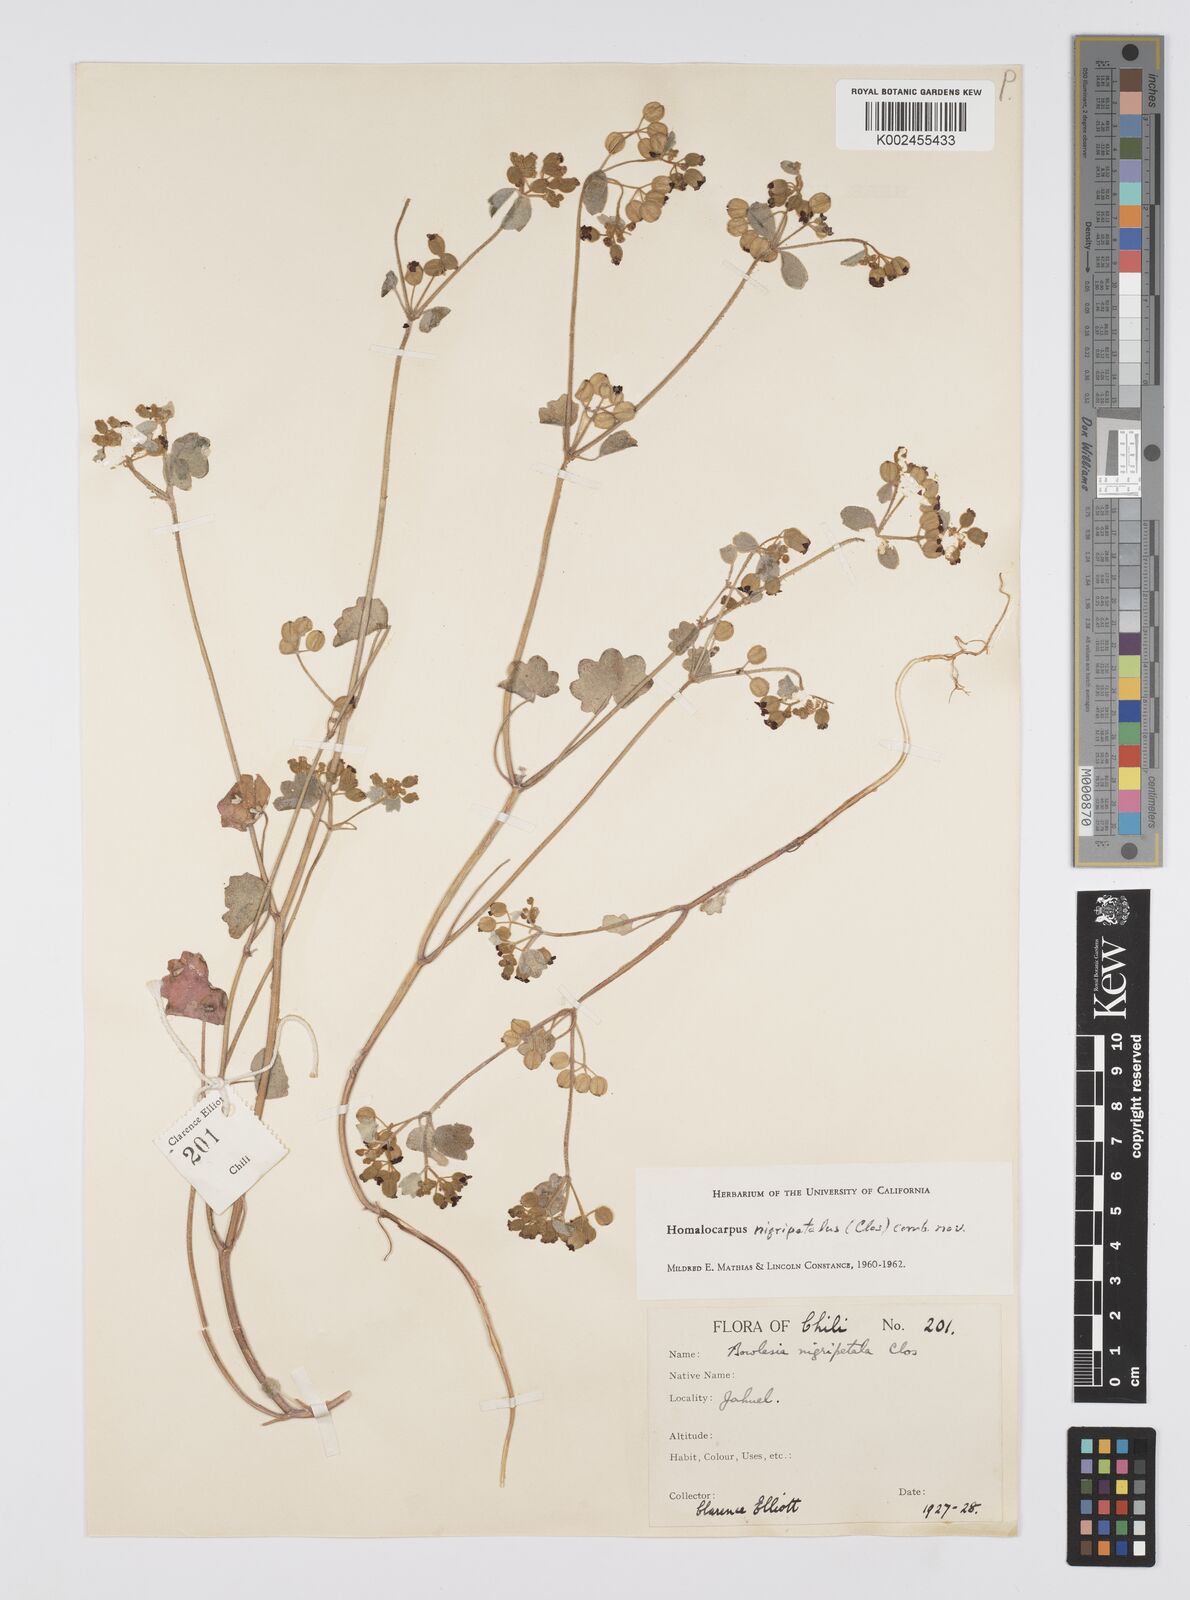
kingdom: Plantae
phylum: Tracheophyta
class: Magnoliopsida
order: Apiales
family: Apiaceae
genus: Homalocarpus
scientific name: Homalocarpus
